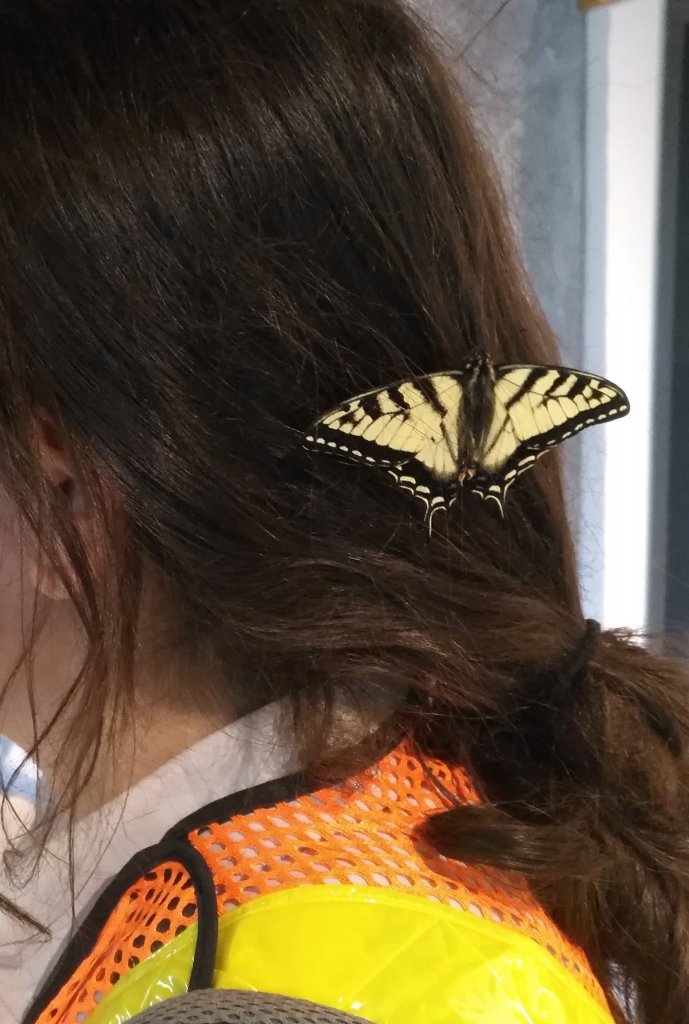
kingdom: Animalia
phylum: Arthropoda
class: Insecta
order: Lepidoptera
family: Papilionidae
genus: Pterourus
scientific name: Pterourus canadensis
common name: Canadian Tiger Swallowtail
